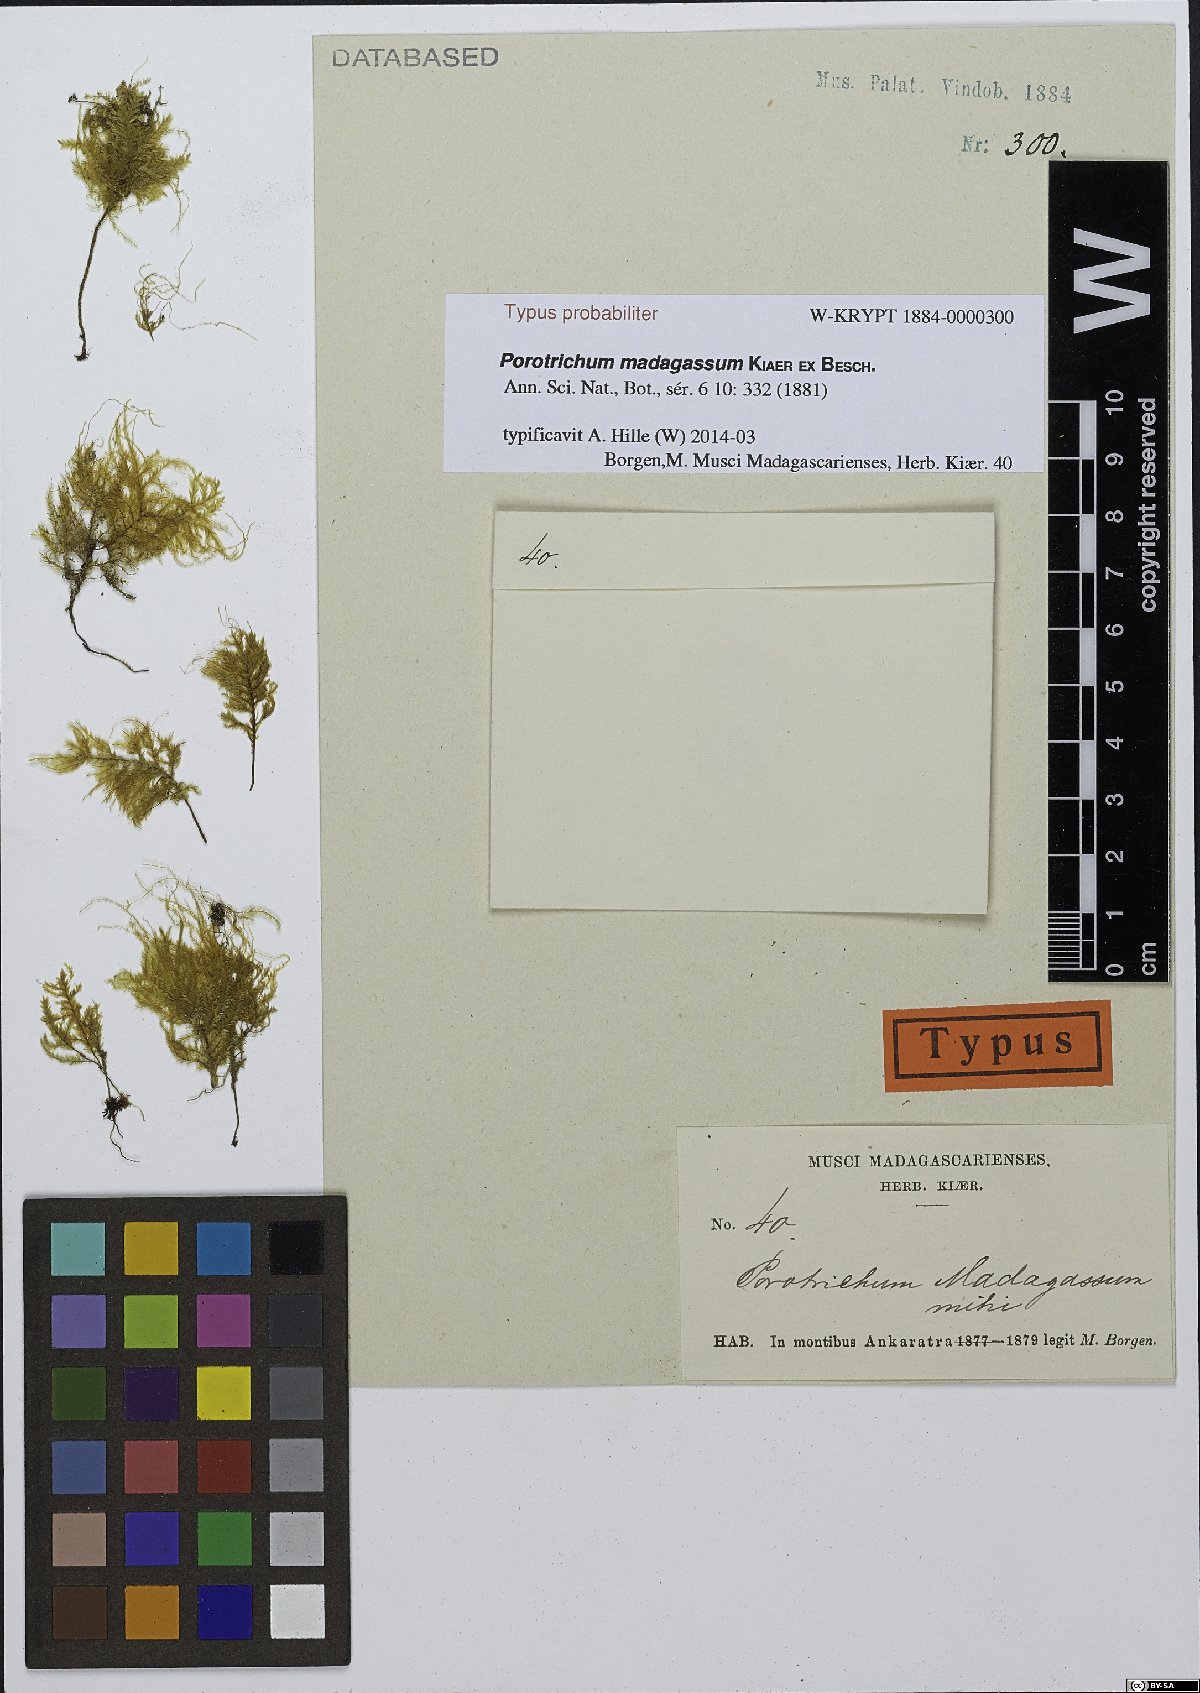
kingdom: Plantae
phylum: Bryophyta
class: Bryopsida
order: Hypnales
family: Neckeraceae
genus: Porotrichum
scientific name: Porotrichum madagassum
